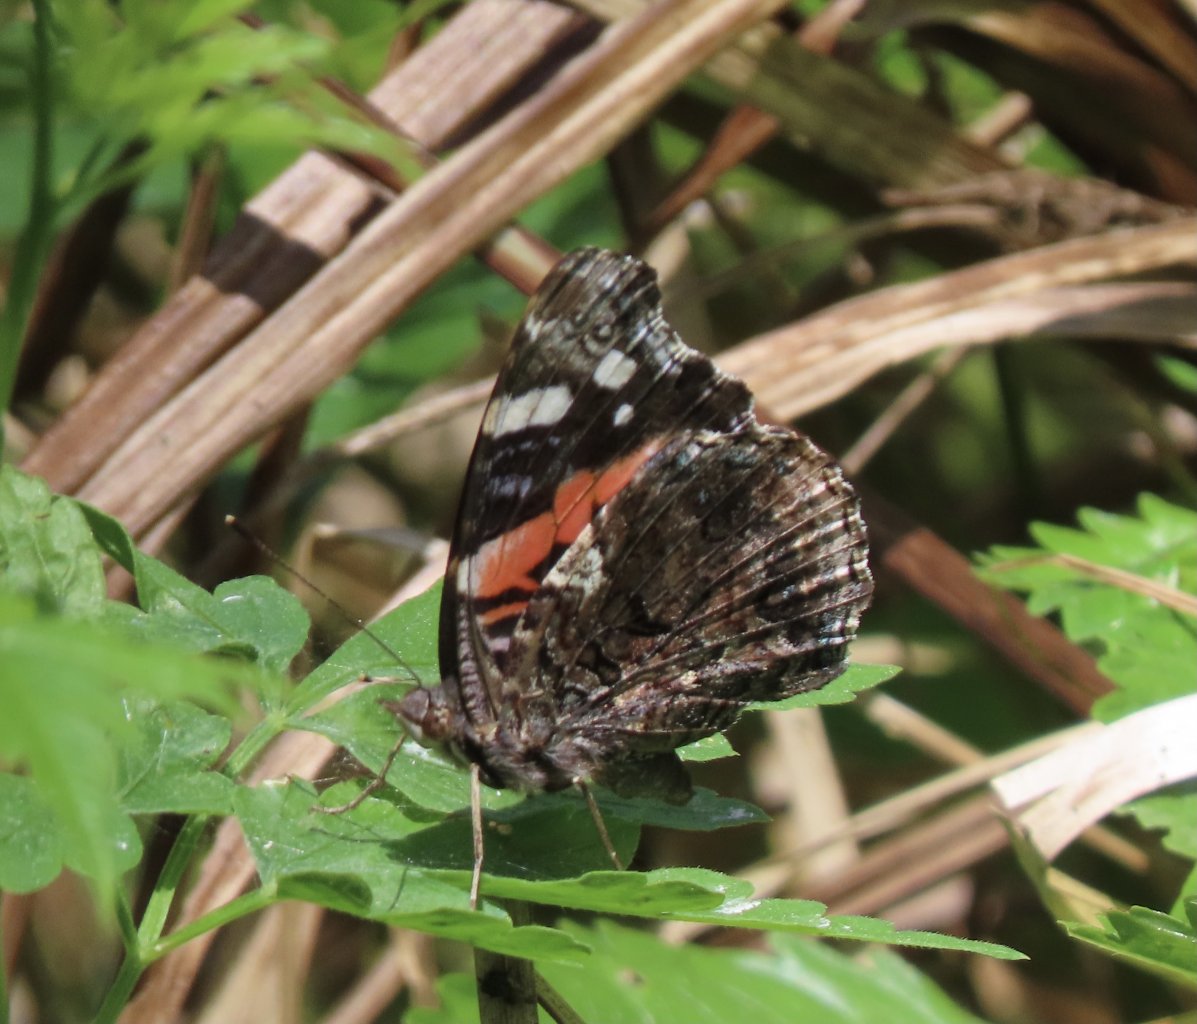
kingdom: Animalia
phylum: Arthropoda
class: Insecta
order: Lepidoptera
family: Nymphalidae
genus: Vanessa
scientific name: Vanessa atalanta
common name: Red Admiral
